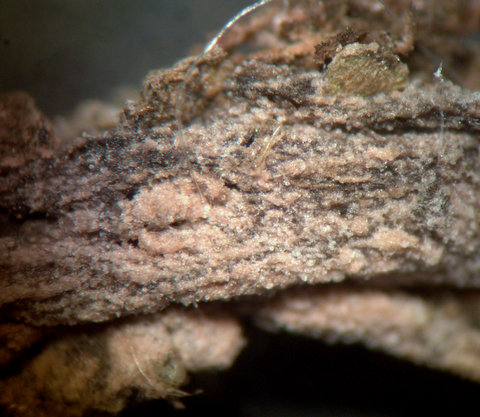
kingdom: Fungi
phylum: Basidiomycota
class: Agaricomycetes
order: Cantharellales
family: Tulasnellaceae
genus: Tulasnella
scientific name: Tulasnella violea
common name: violet ballonhinde
